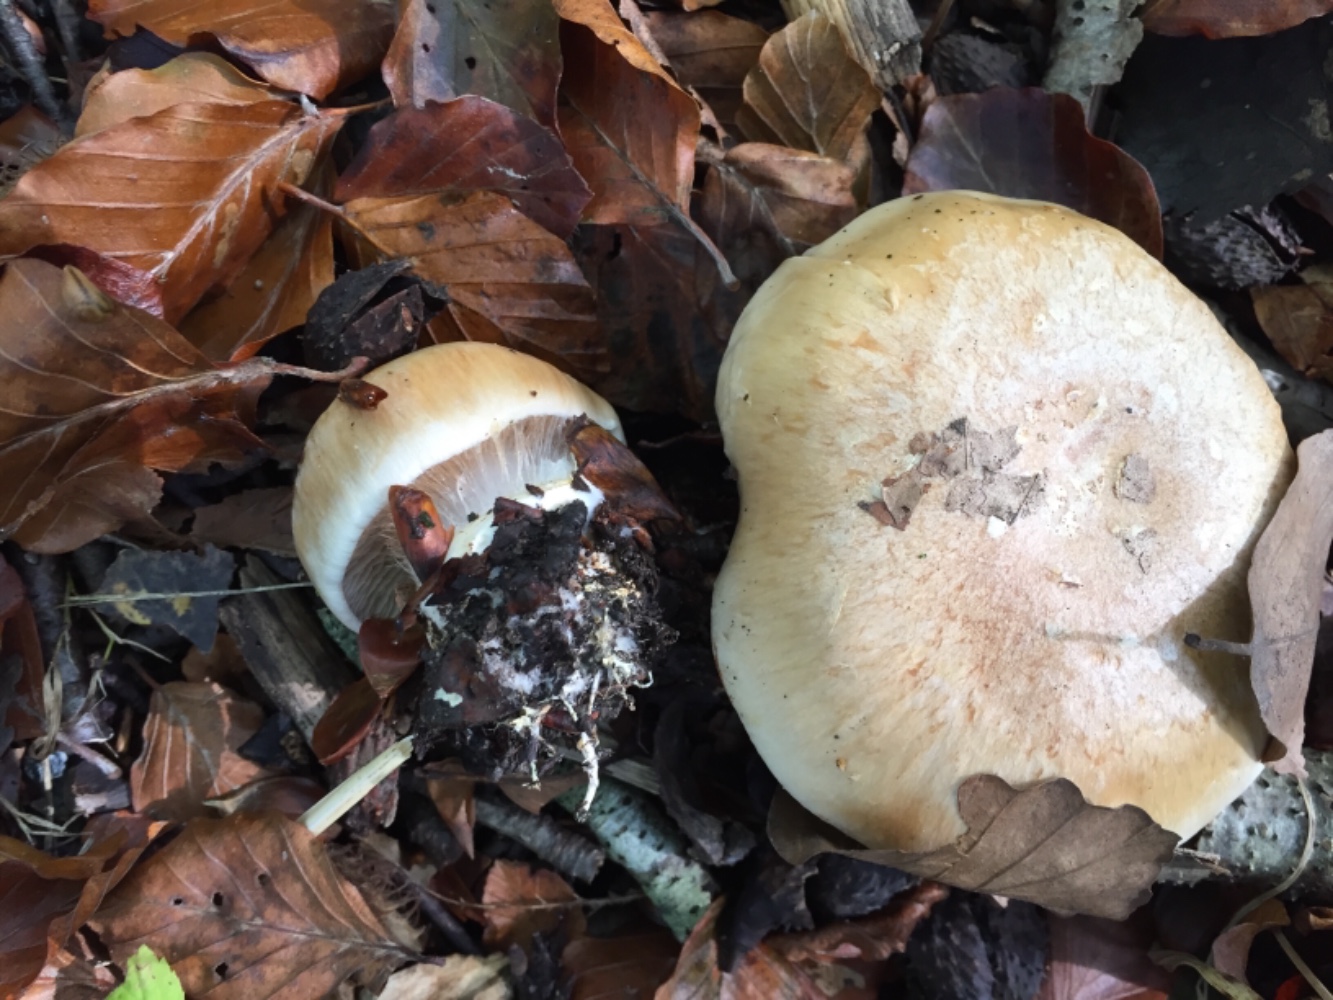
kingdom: Fungi
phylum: Basidiomycota
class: Agaricomycetes
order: Agaricales
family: Cortinariaceae
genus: Cortinarius
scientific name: Cortinarius foetens
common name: stribet slørhat
